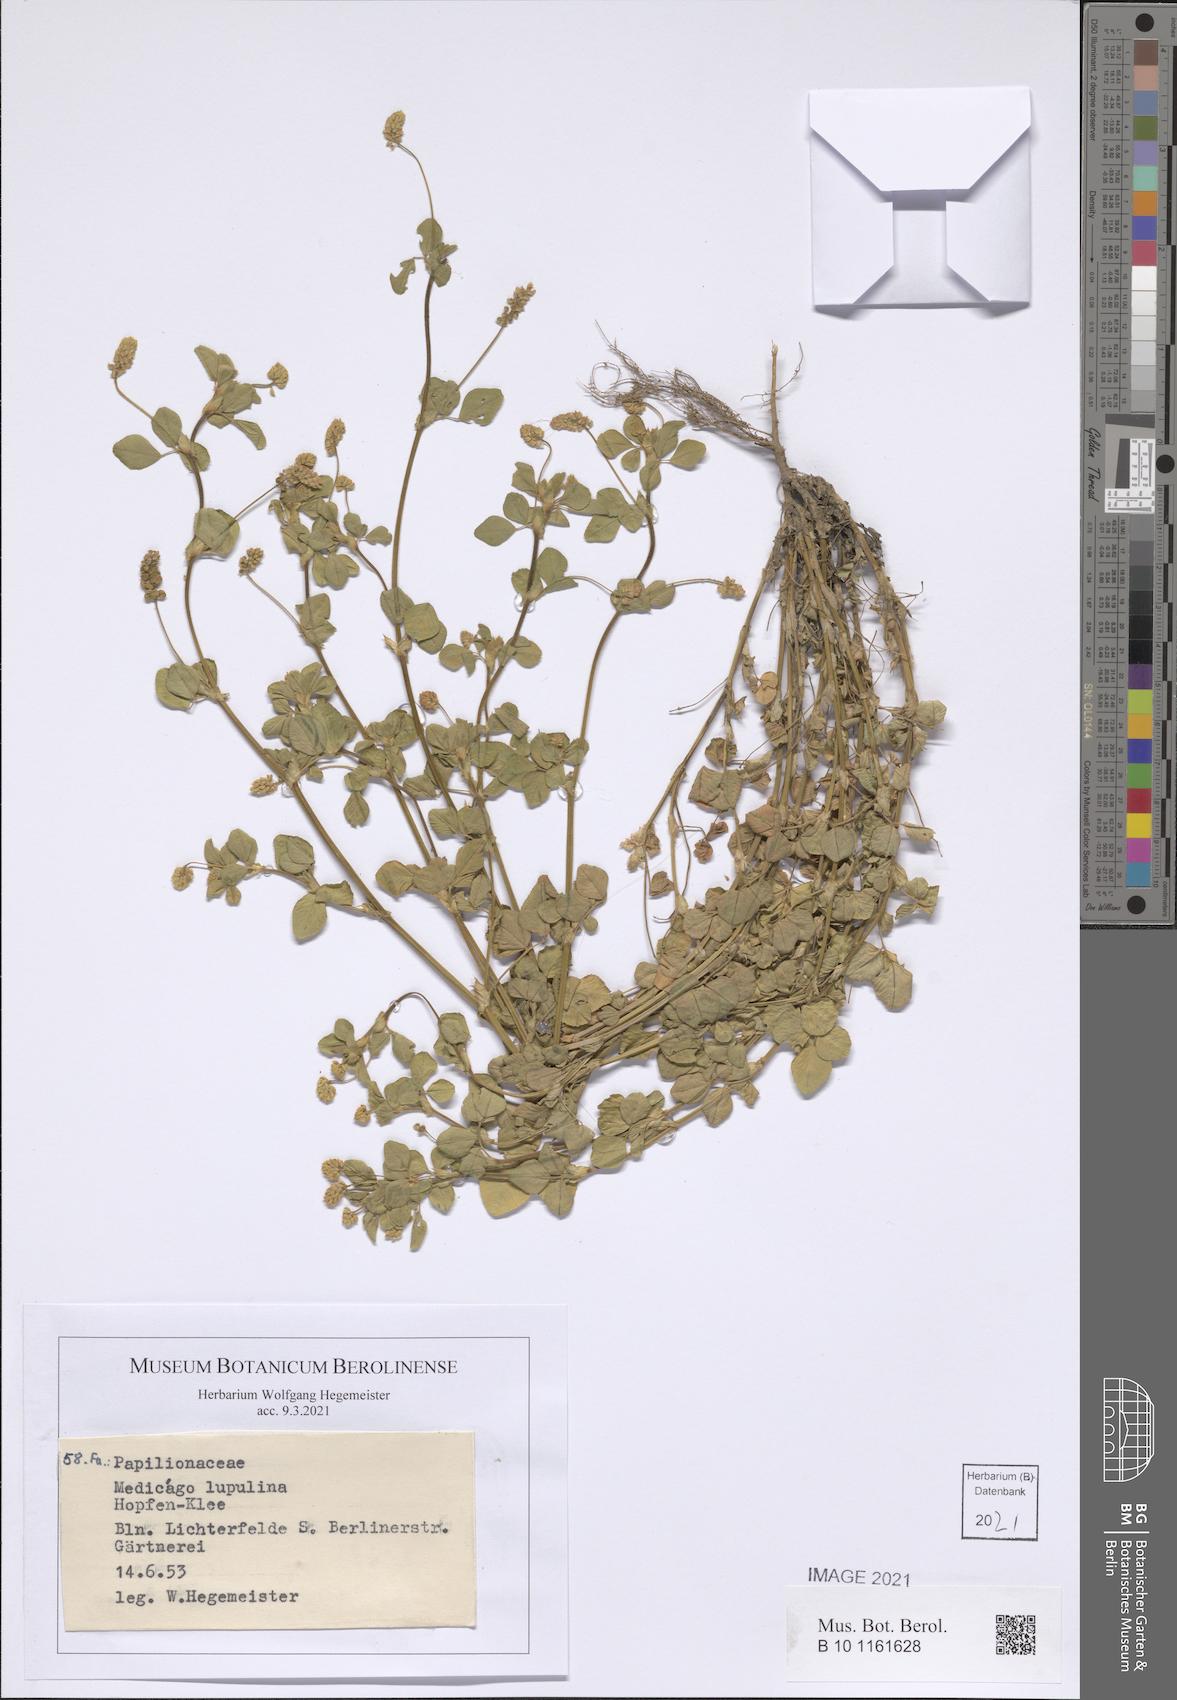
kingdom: Plantae
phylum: Tracheophyta
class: Magnoliopsida
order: Fabales
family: Fabaceae
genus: Medicago
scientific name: Medicago lupulina
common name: Black medick
